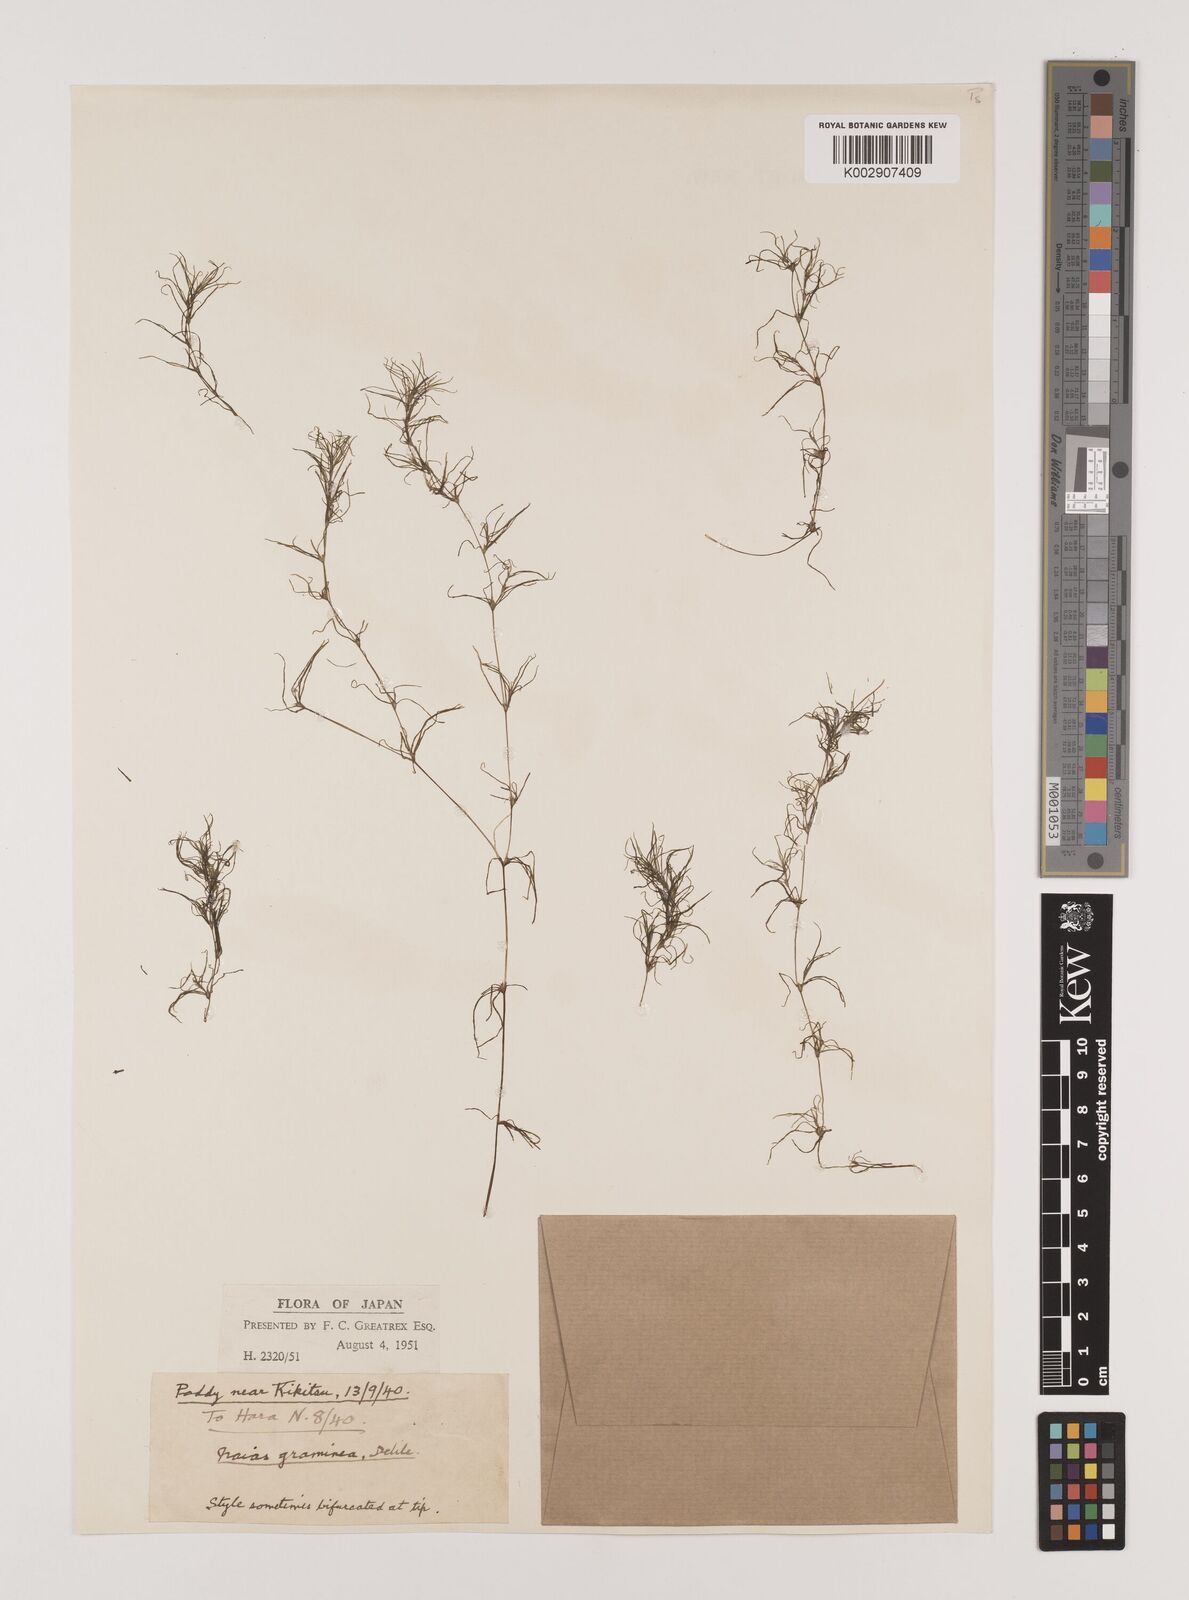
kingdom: Plantae
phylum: Tracheophyta
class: Liliopsida
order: Alismatales
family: Hydrocharitaceae
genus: Najas
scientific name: Najas graminea
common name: Ricefield waternymph
